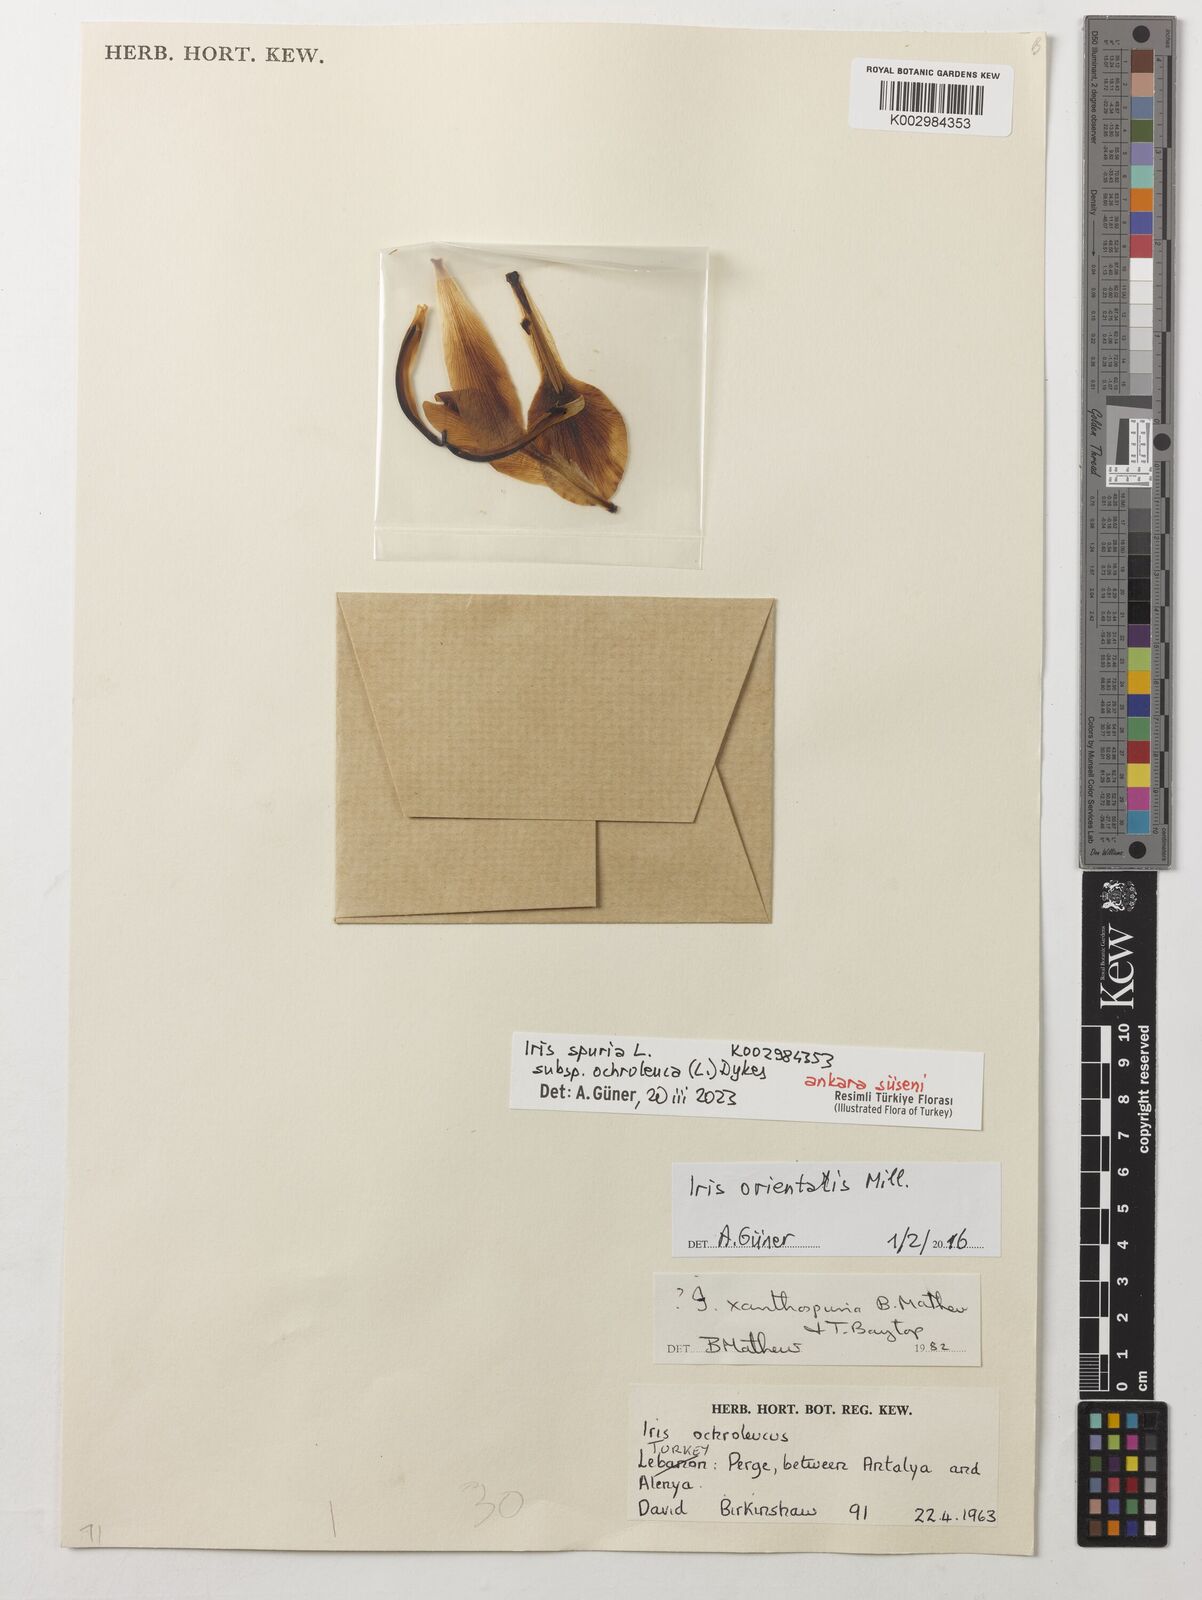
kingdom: Plantae
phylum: Tracheophyta
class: Liliopsida
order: Asparagales
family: Iridaceae
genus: Iris
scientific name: Iris orientalis
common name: Turkish iris
